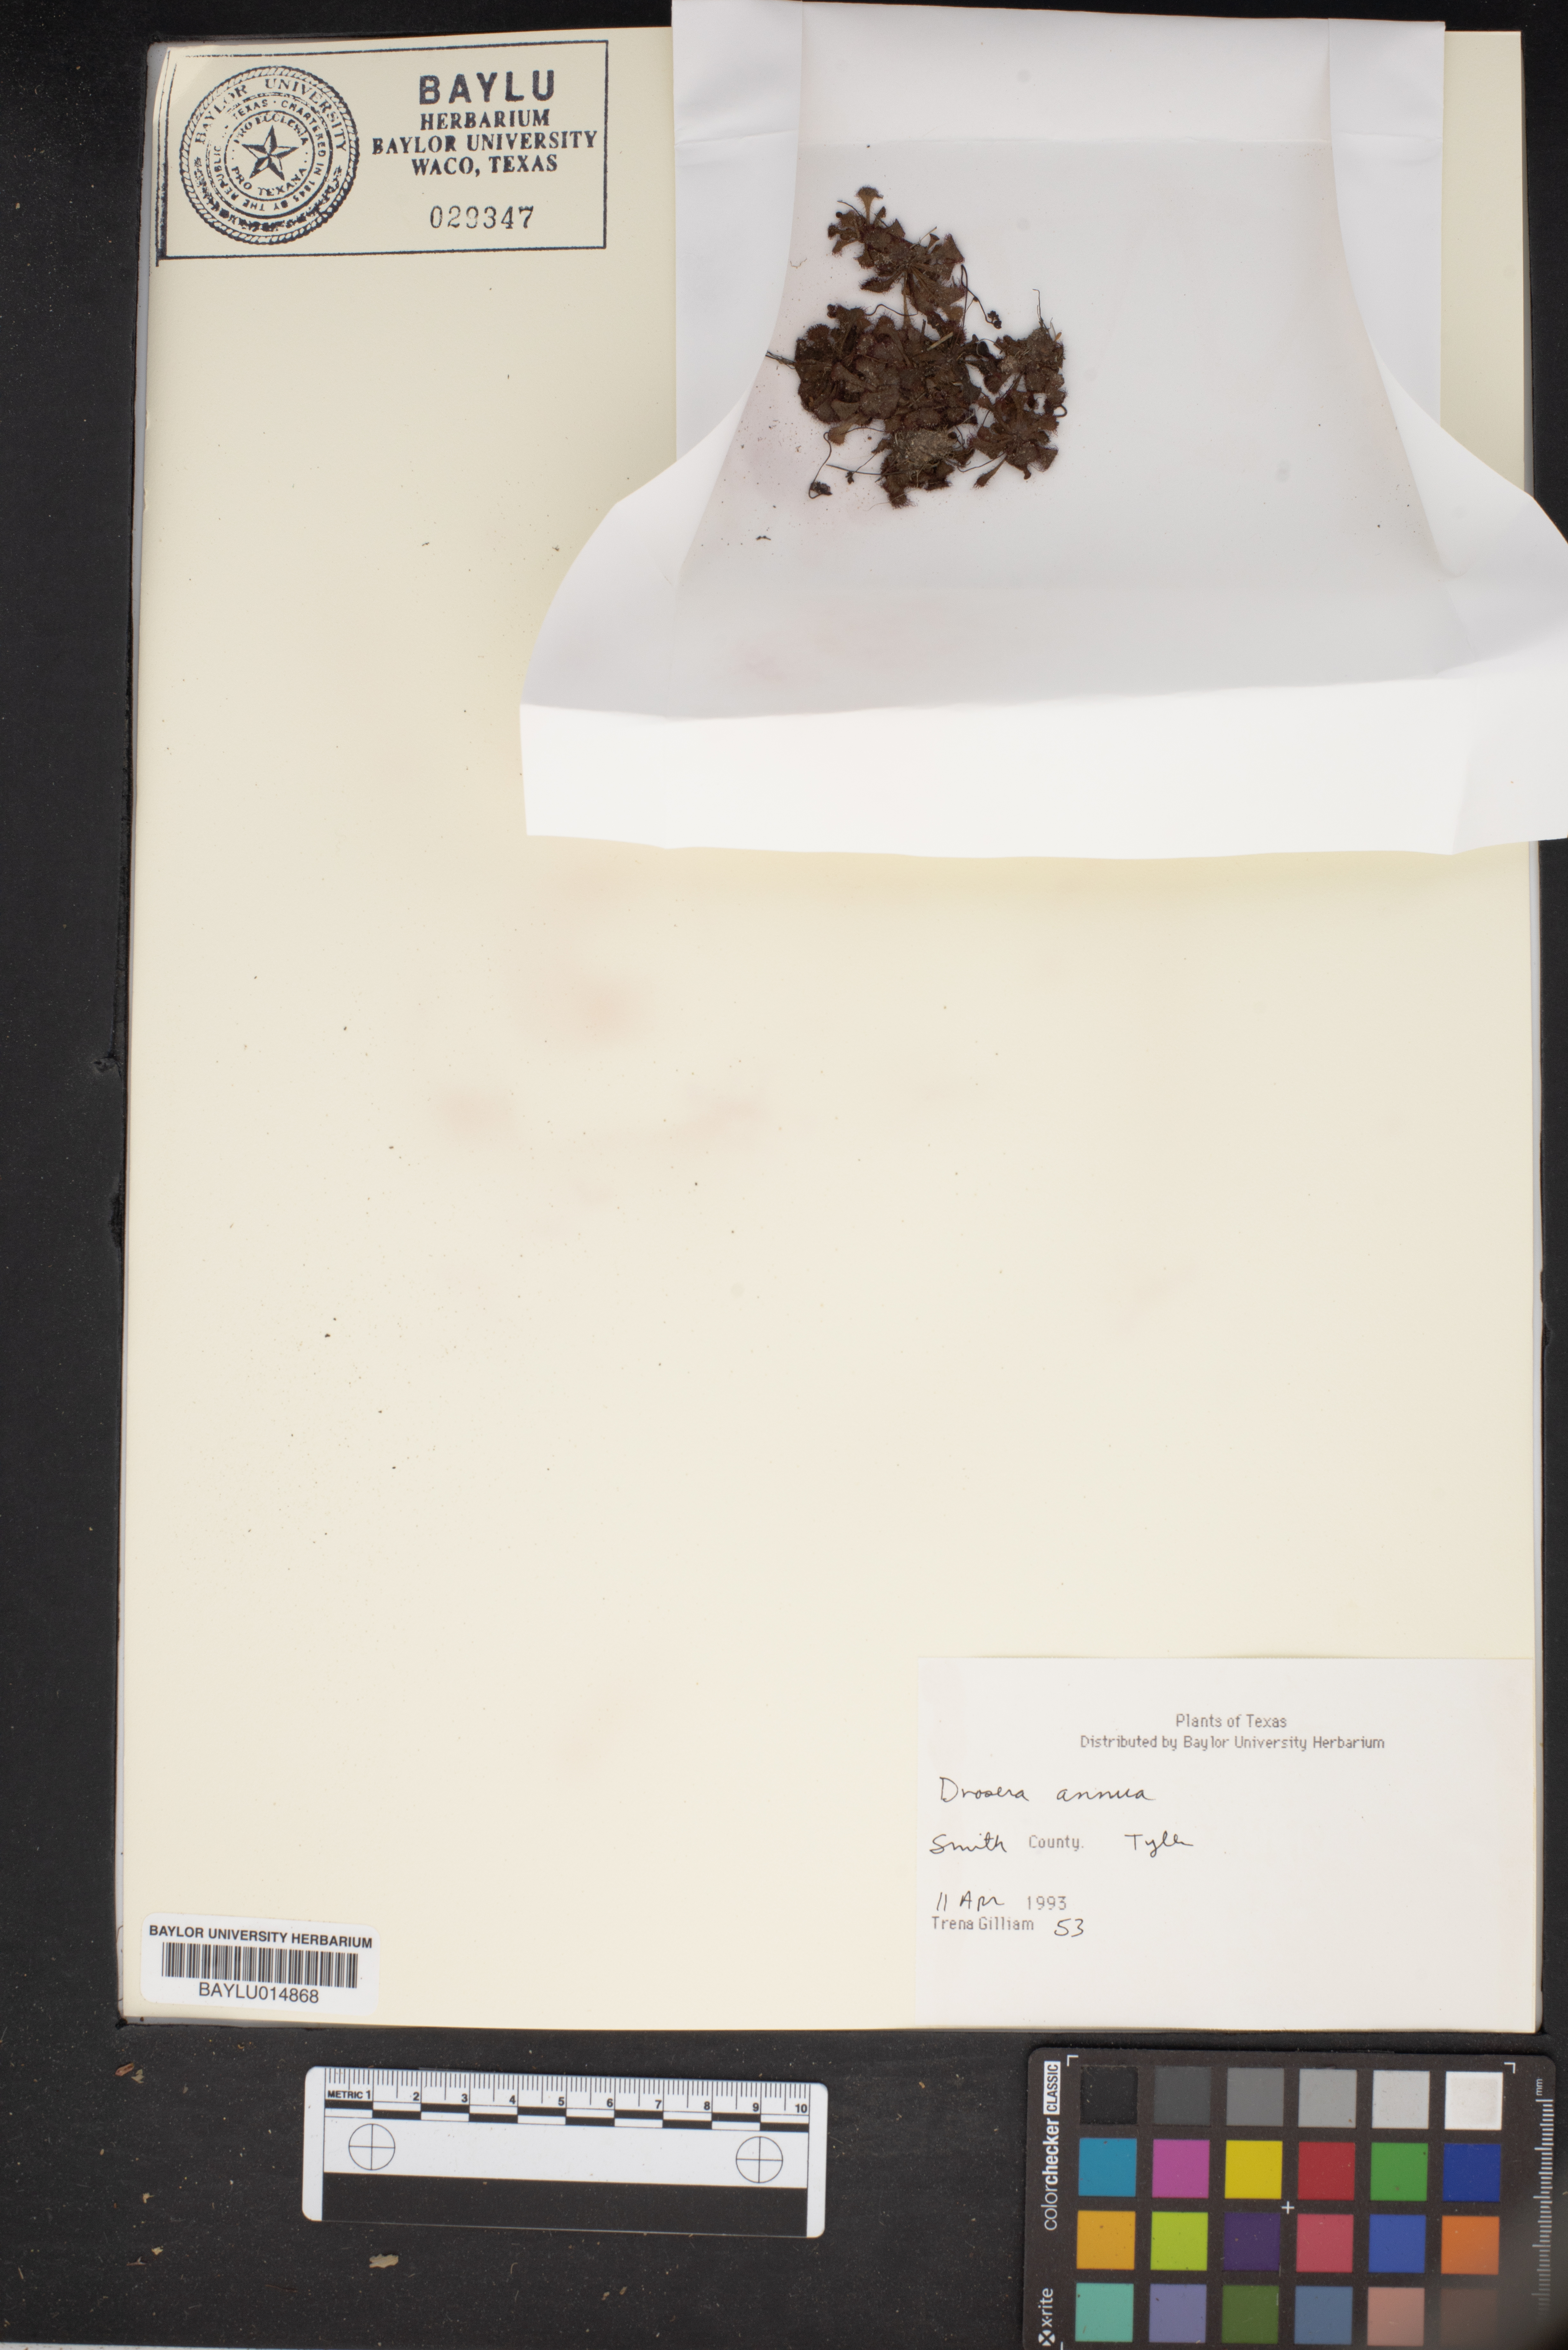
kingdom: Plantae
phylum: Tracheophyta
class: Magnoliopsida
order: Caryophyllales
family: Droseraceae
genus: Drosera
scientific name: Drosera brevifolia
